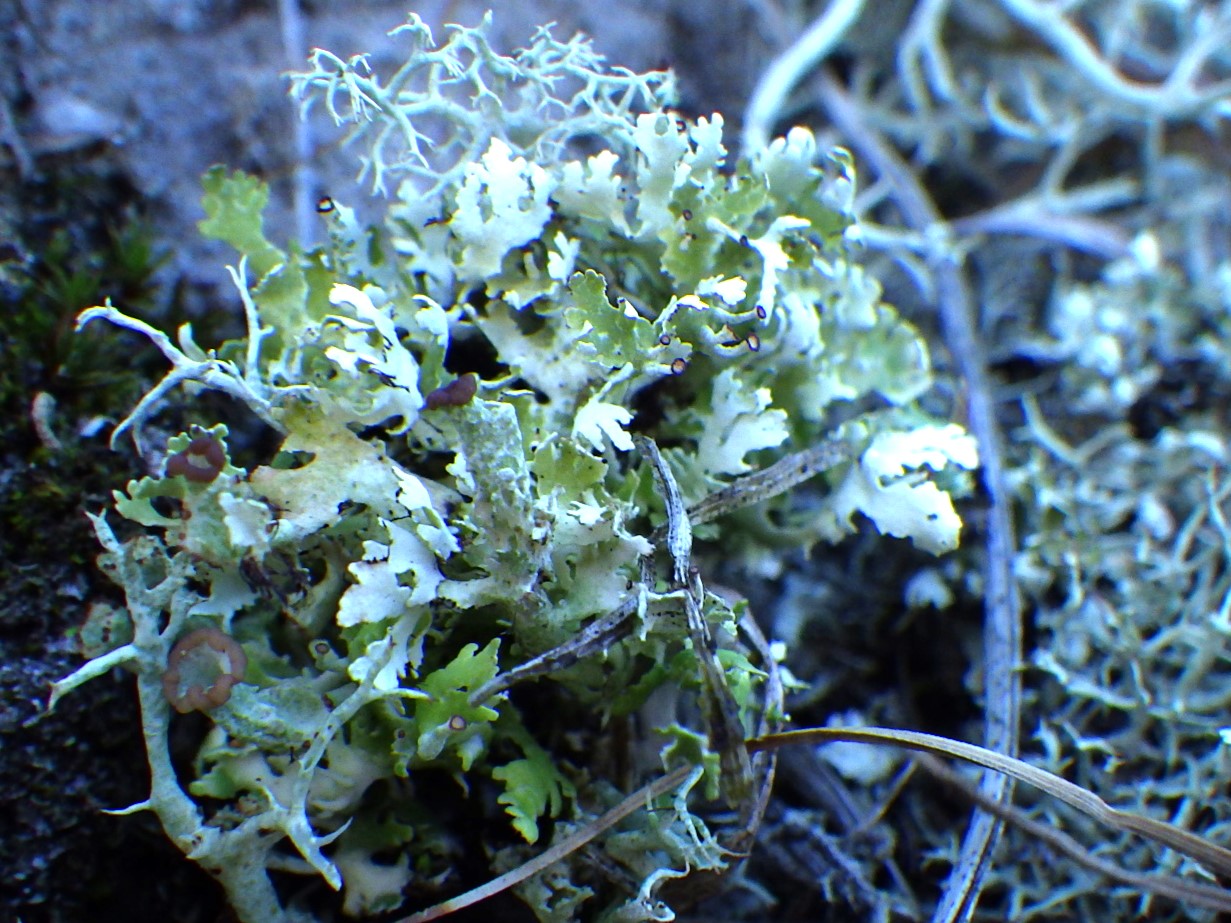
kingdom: Fungi
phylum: Ascomycota
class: Lecanoromycetes
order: Lecanorales
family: Cladoniaceae
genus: Cladonia
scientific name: Cladonia foliacea
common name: fliget bægerlav
